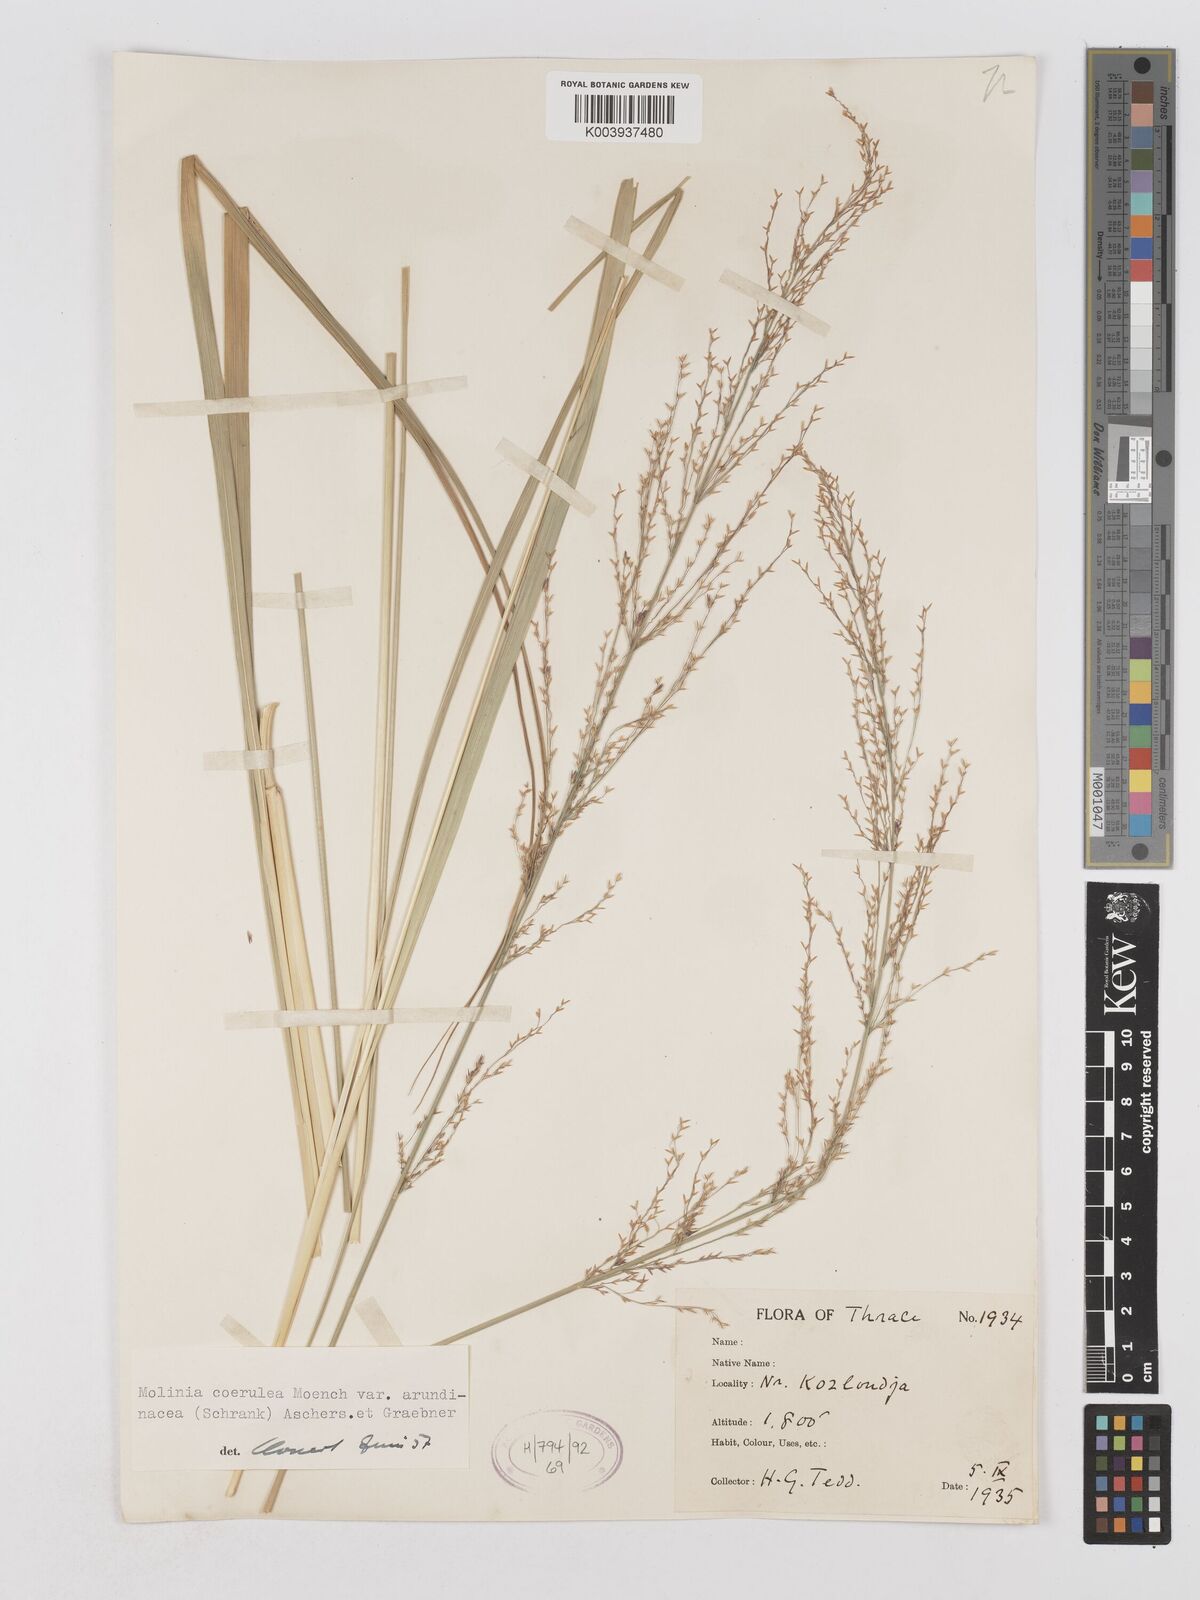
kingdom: Plantae
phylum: Tracheophyta
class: Liliopsida
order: Poales
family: Poaceae
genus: Molinia
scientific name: Molinia caerulea
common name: Purple moor-grass
